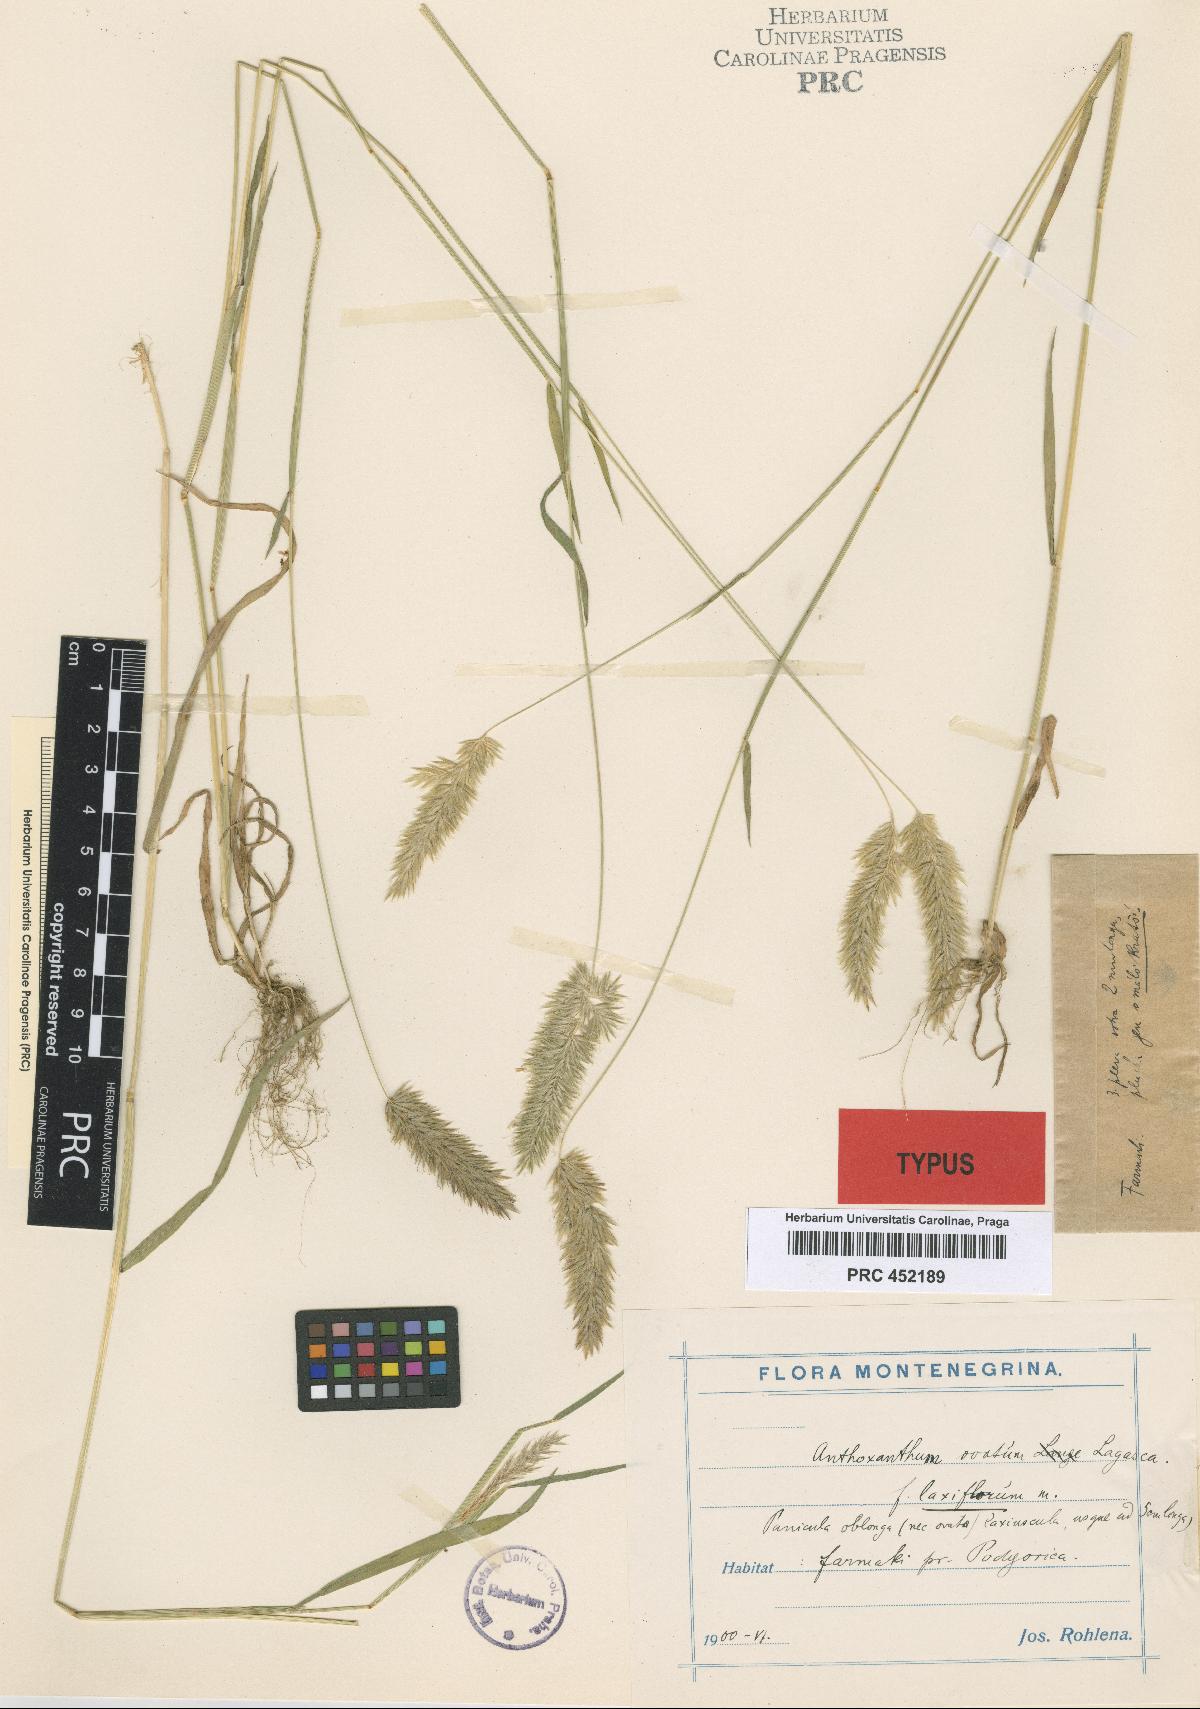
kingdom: Plantae
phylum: Tracheophyta
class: Liliopsida
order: Poales
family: Poaceae
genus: Anthoxanthum
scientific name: Anthoxanthum ovatum
